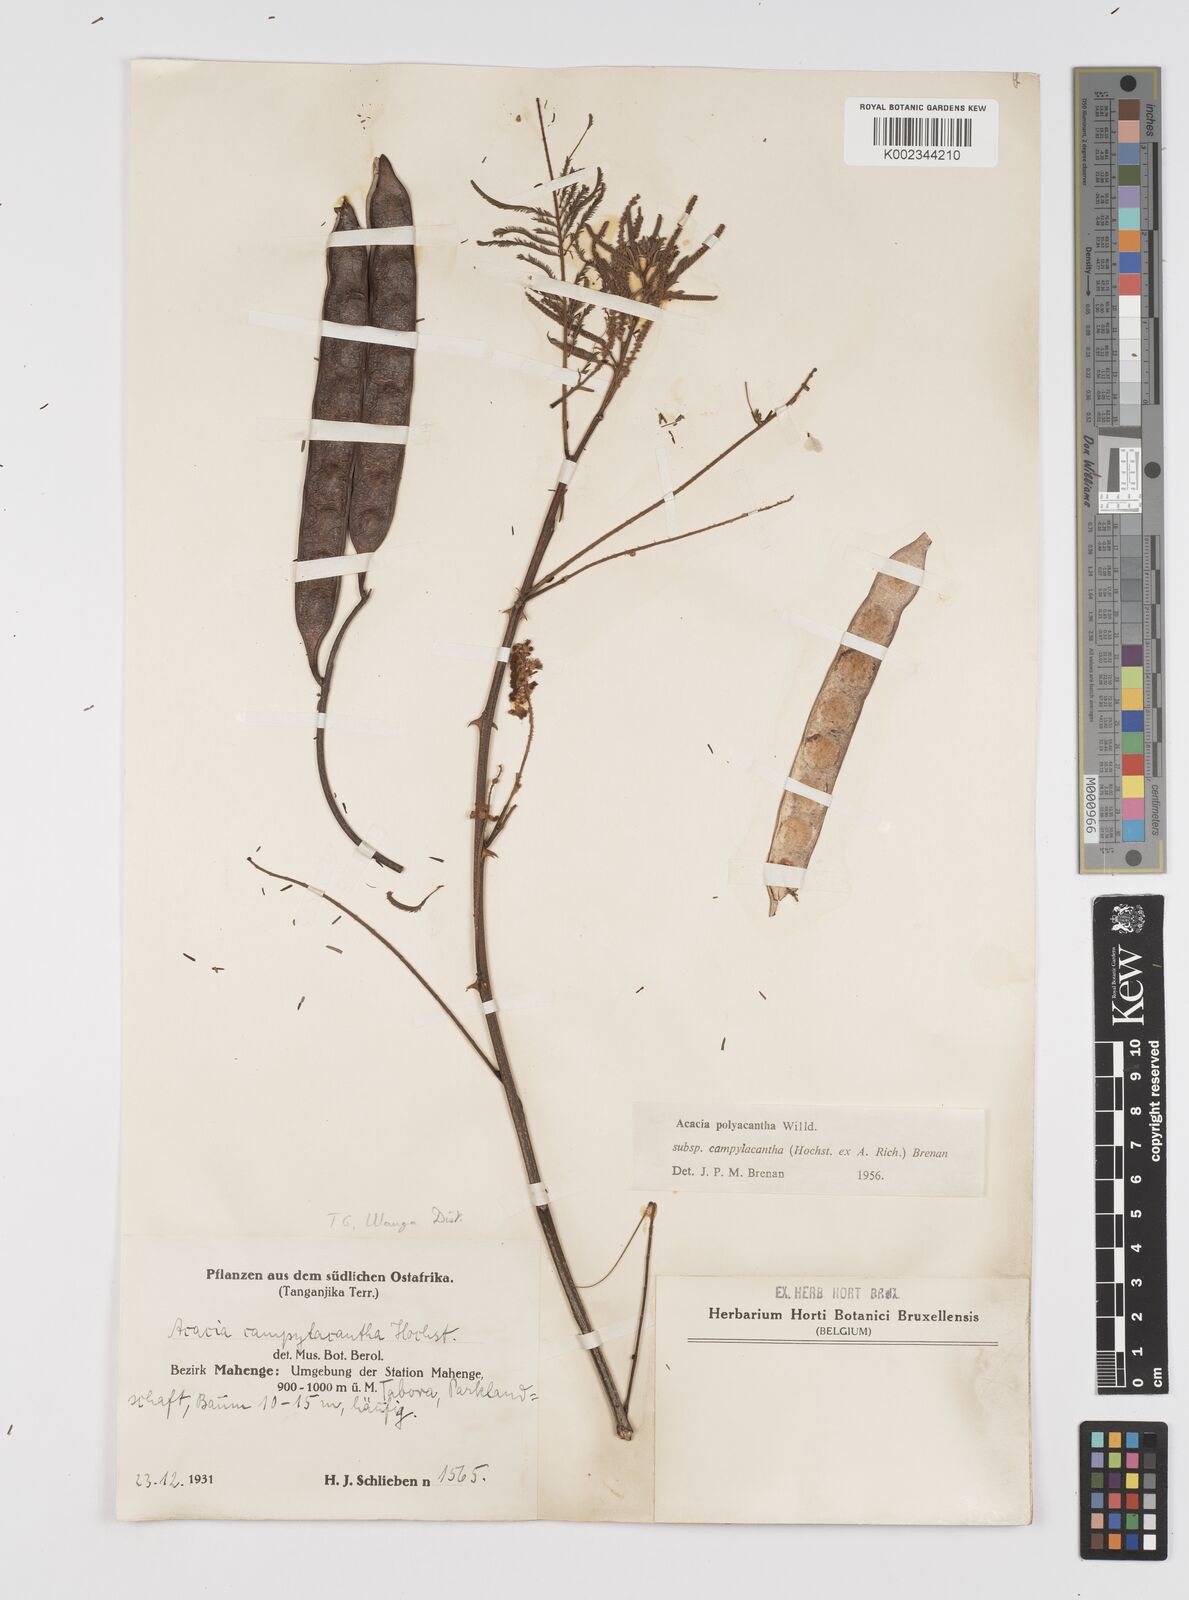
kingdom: Plantae
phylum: Tracheophyta
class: Magnoliopsida
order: Fabales
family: Fabaceae
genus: Senegalia
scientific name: Senegalia polyacantha
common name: Whitethorn
